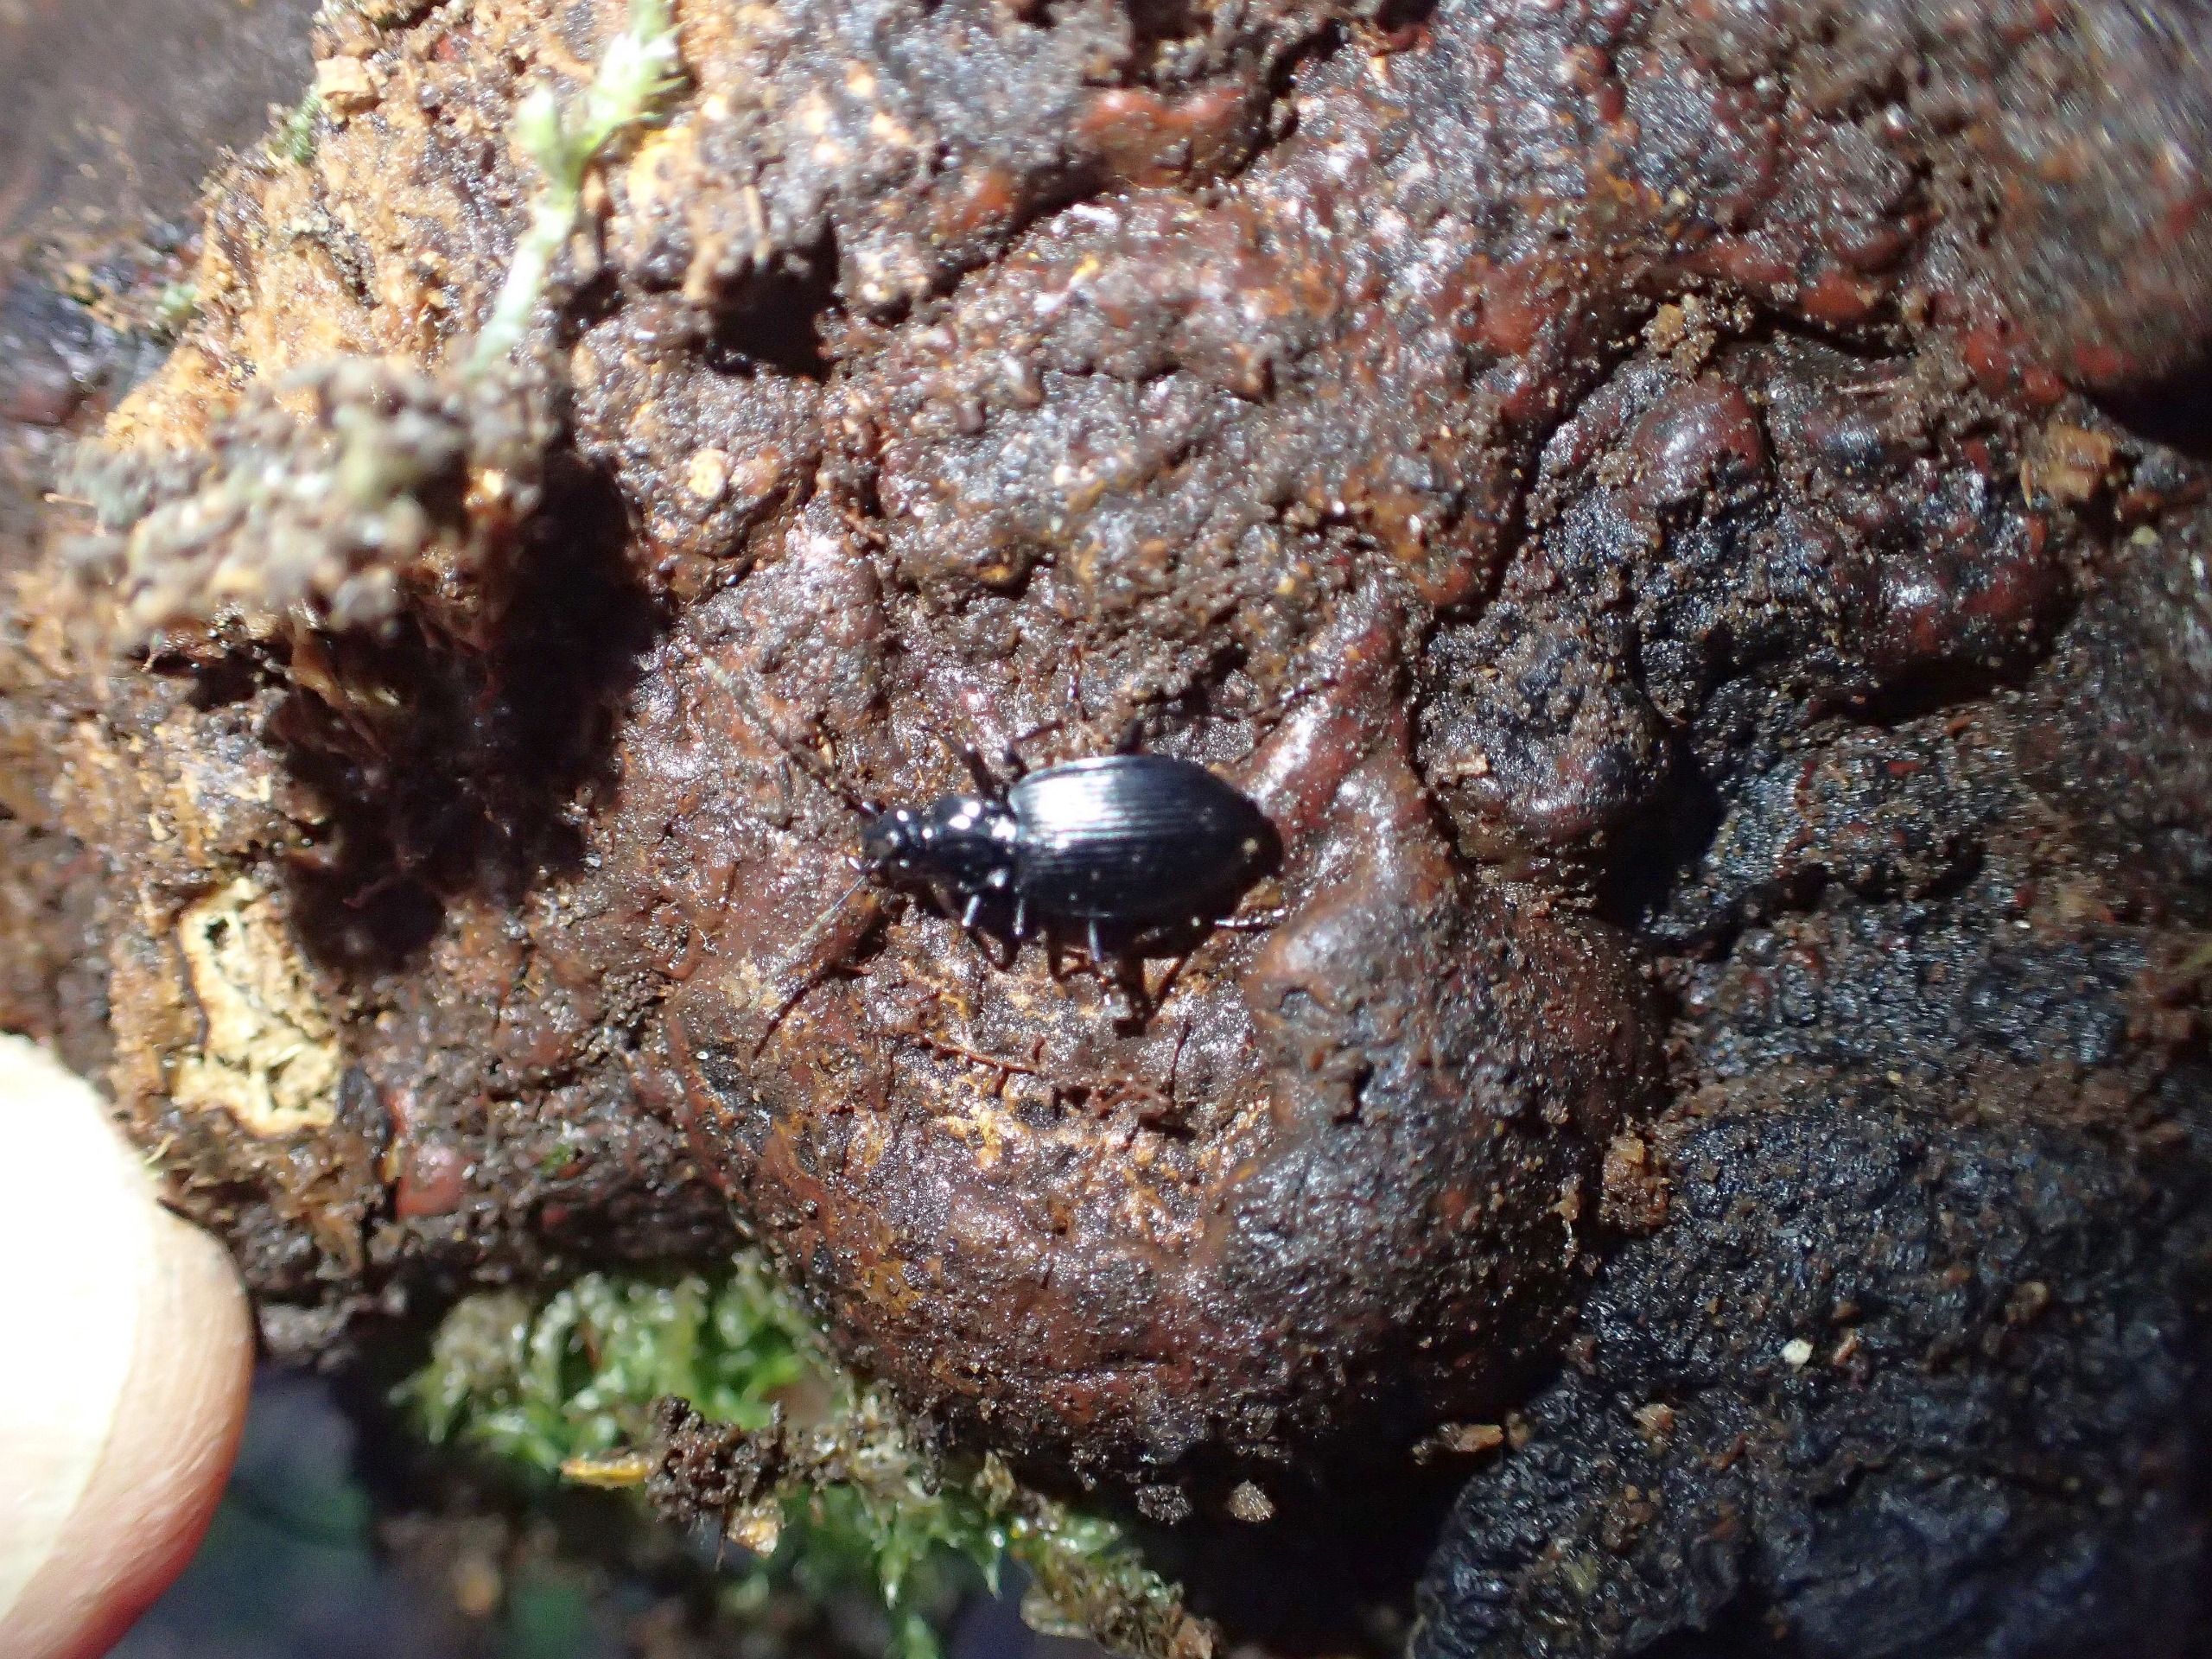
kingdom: Animalia
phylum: Arthropoda
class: Insecta
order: Coleoptera
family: Carabidae
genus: Platynus
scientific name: Platynus assimilis
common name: Skovkvikløber
